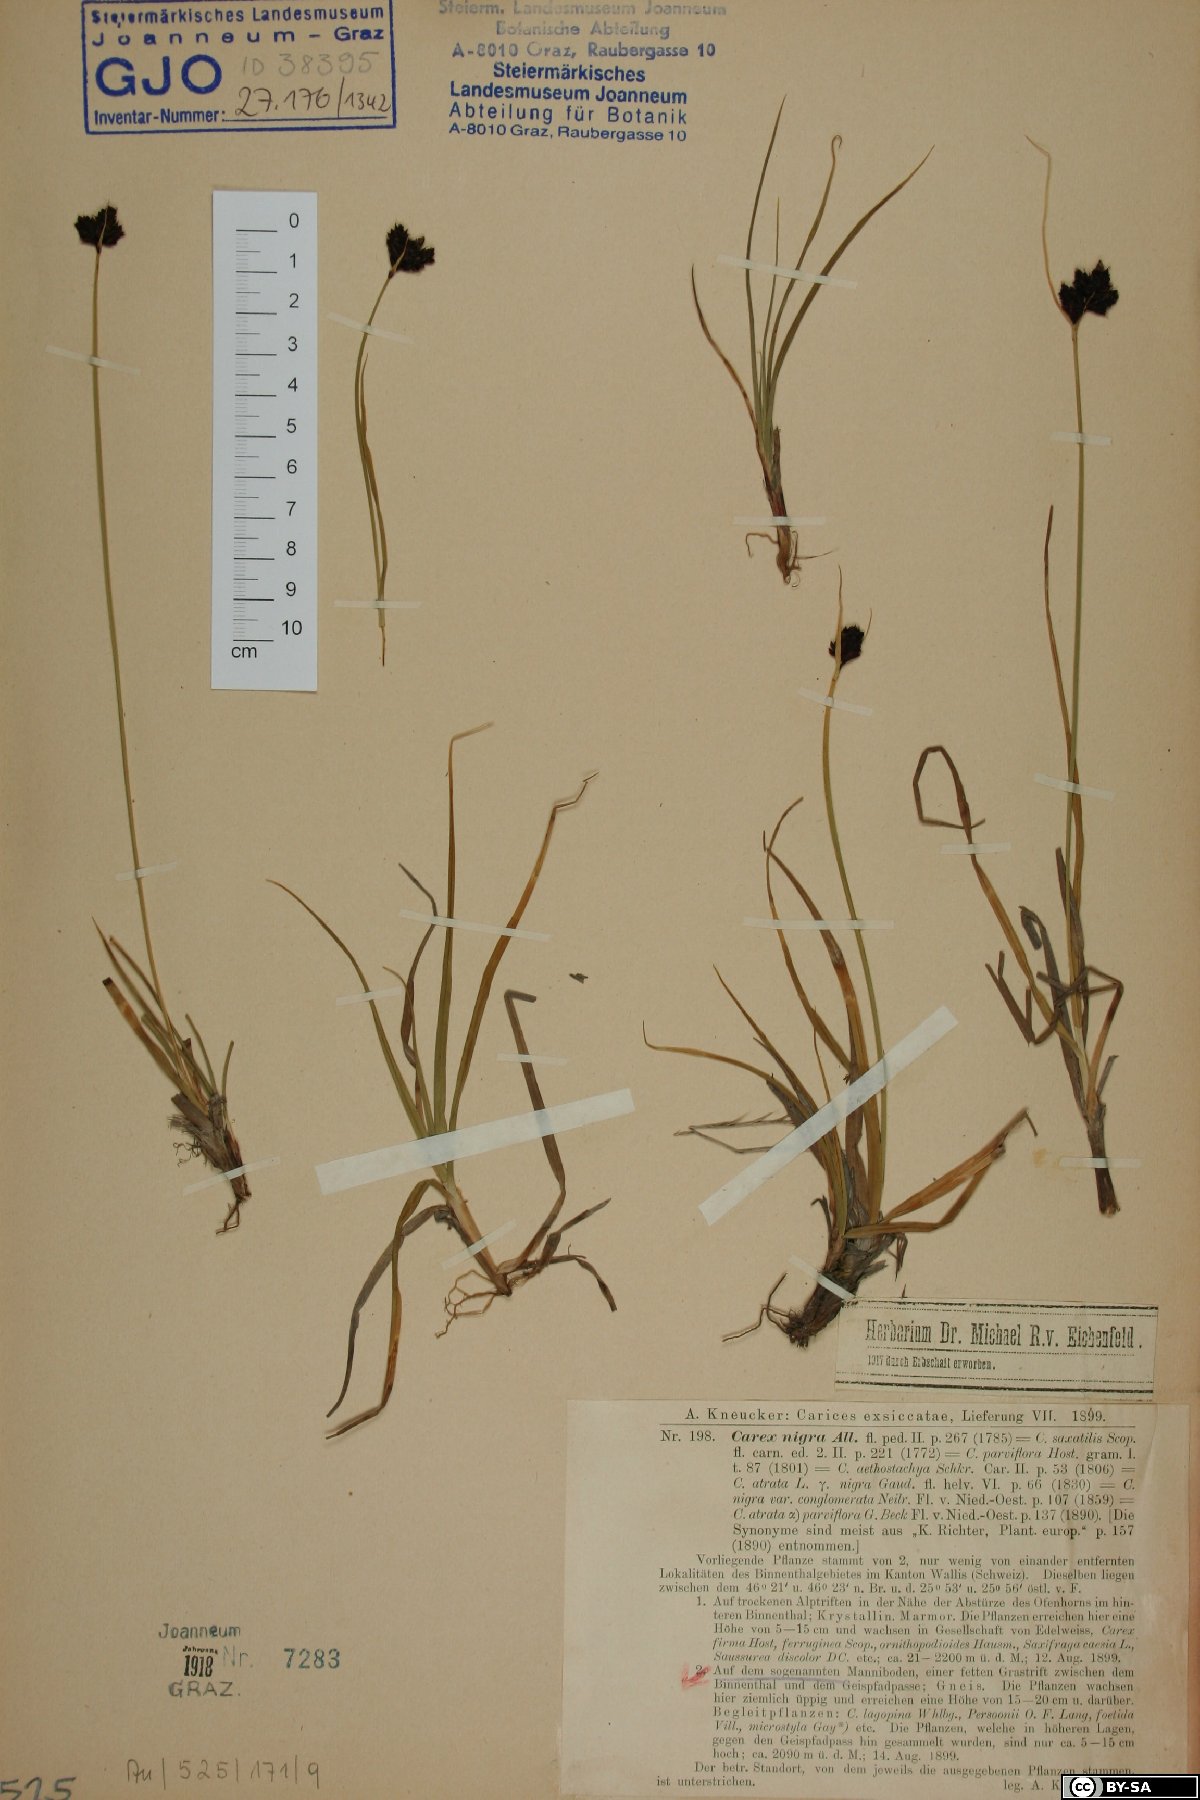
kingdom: Plantae
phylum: Tracheophyta
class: Liliopsida
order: Poales
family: Cyperaceae
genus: Carex
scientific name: Carex nigra
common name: Common sedge
